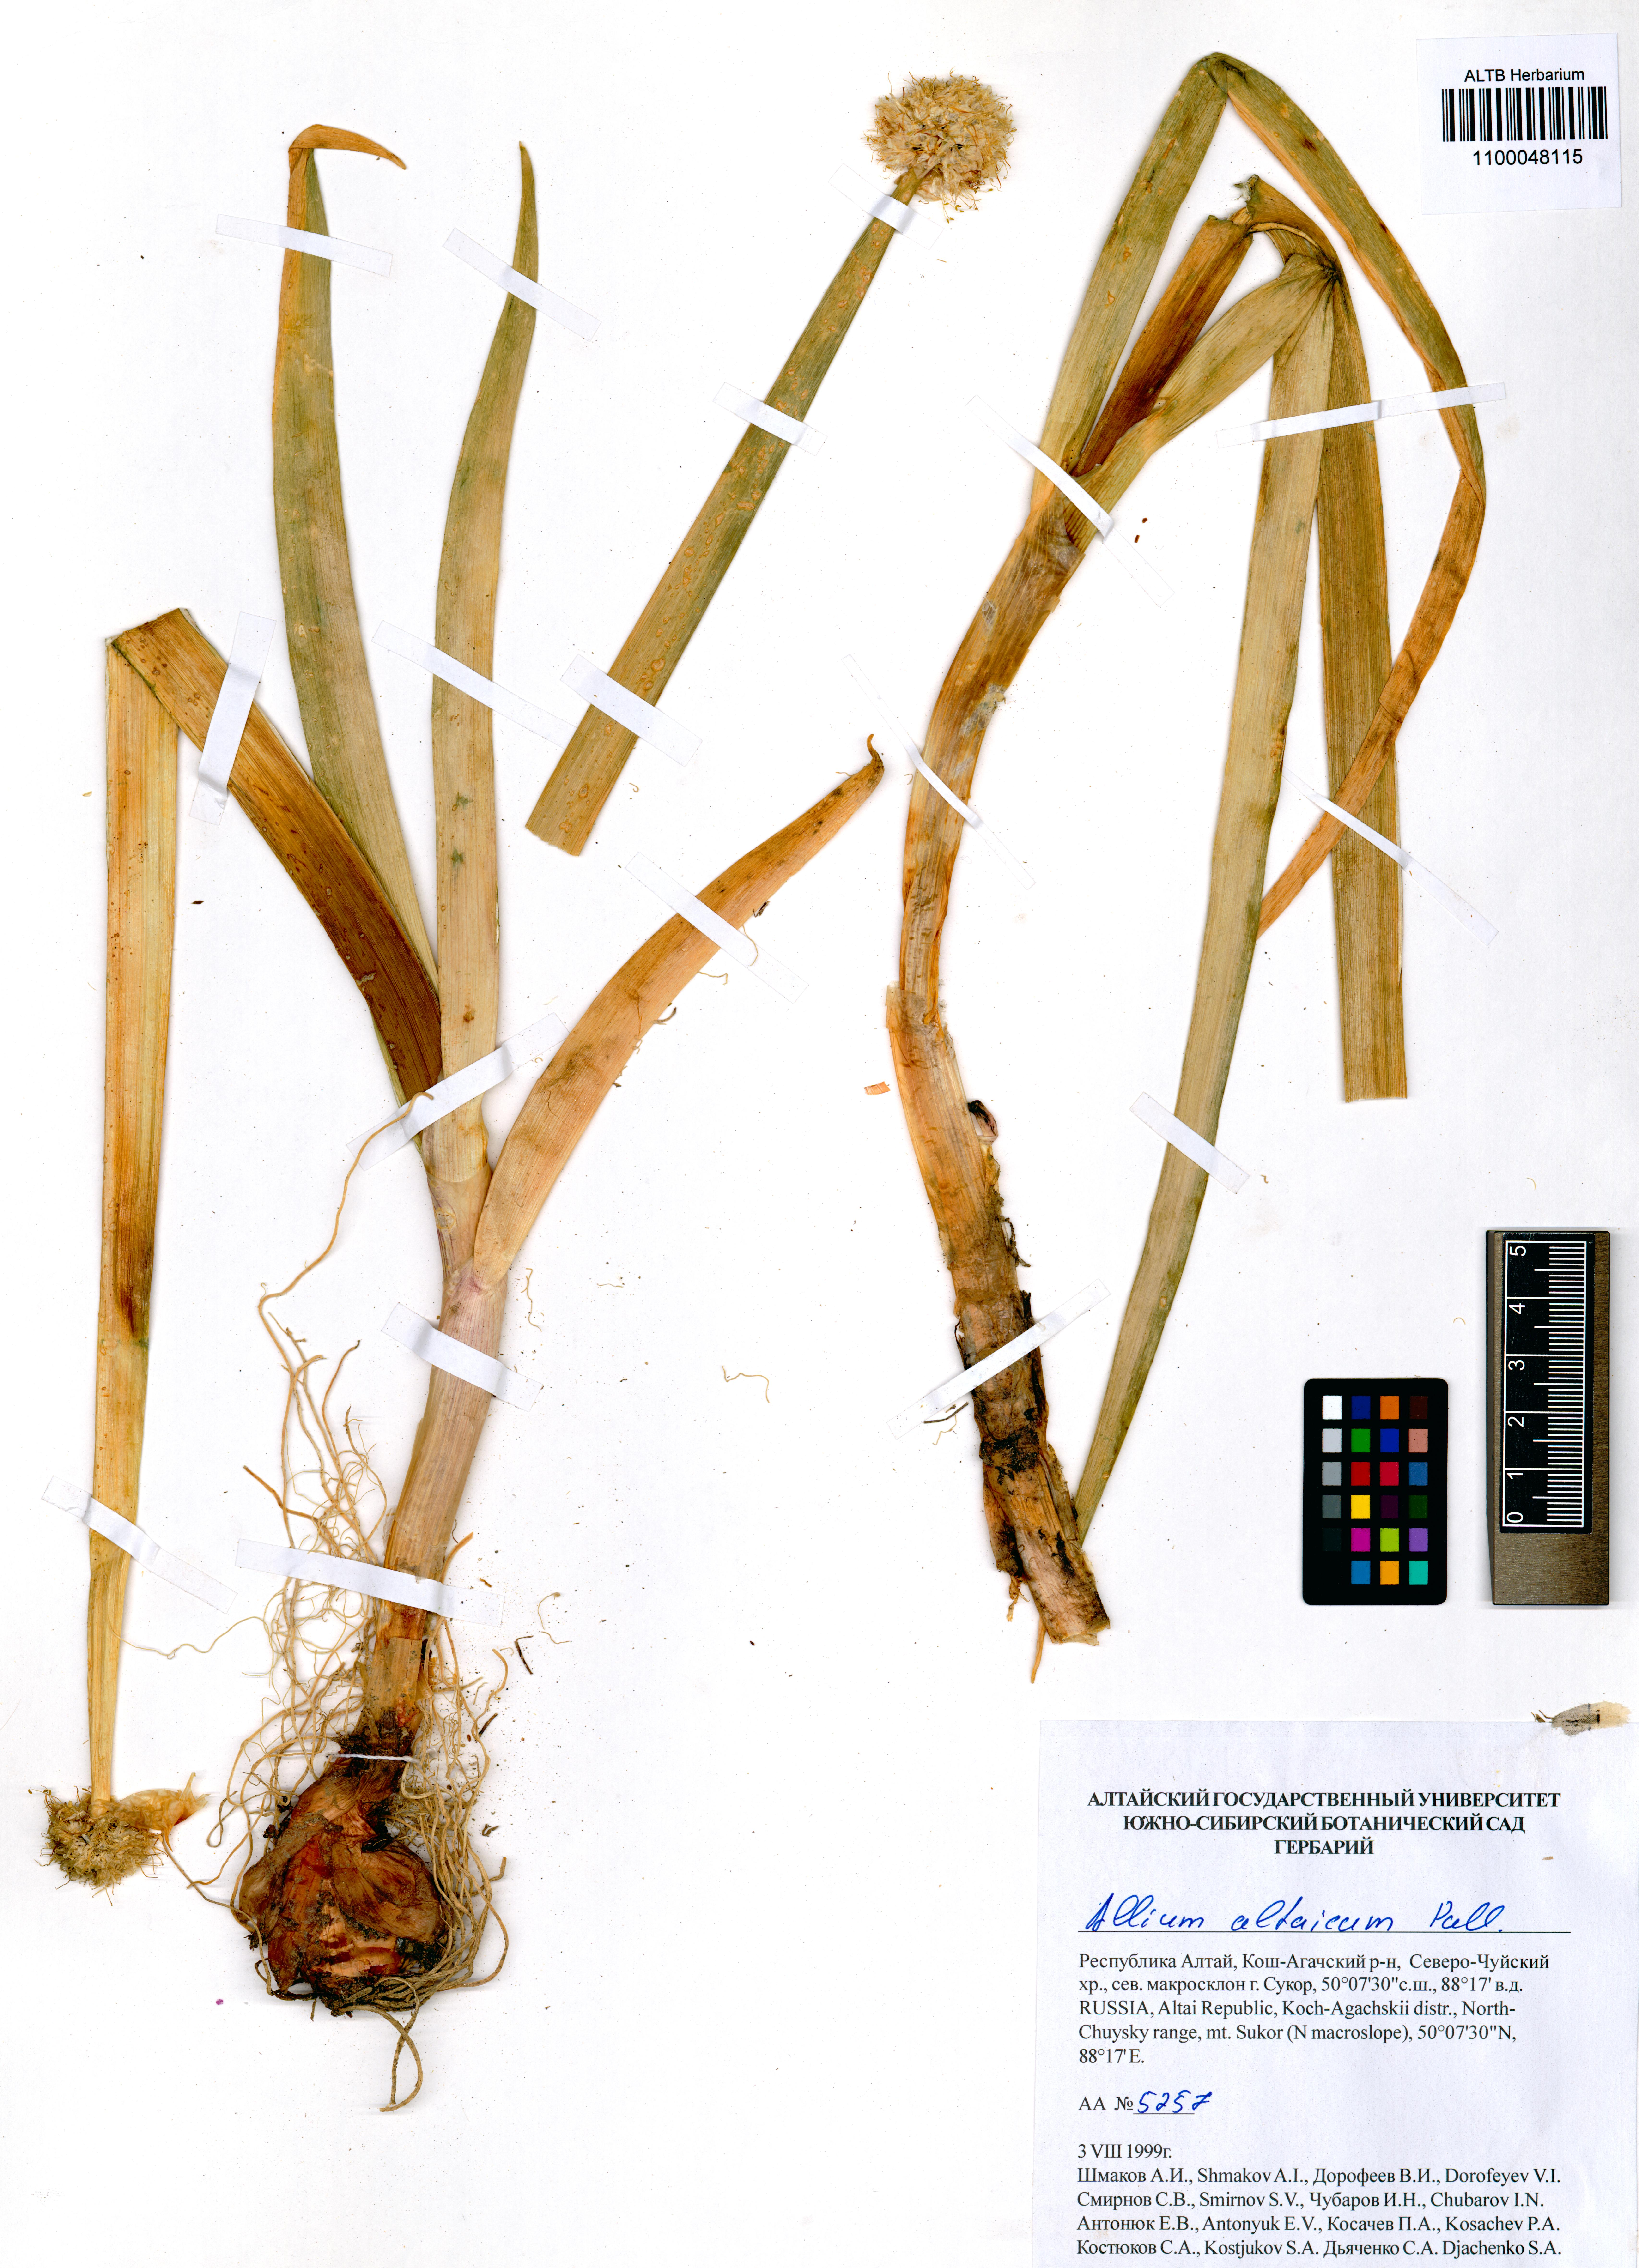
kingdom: Plantae
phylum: Tracheophyta
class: Liliopsida
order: Asparagales
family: Amaryllidaceae
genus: Allium
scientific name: Allium altaicum
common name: Altai onion
